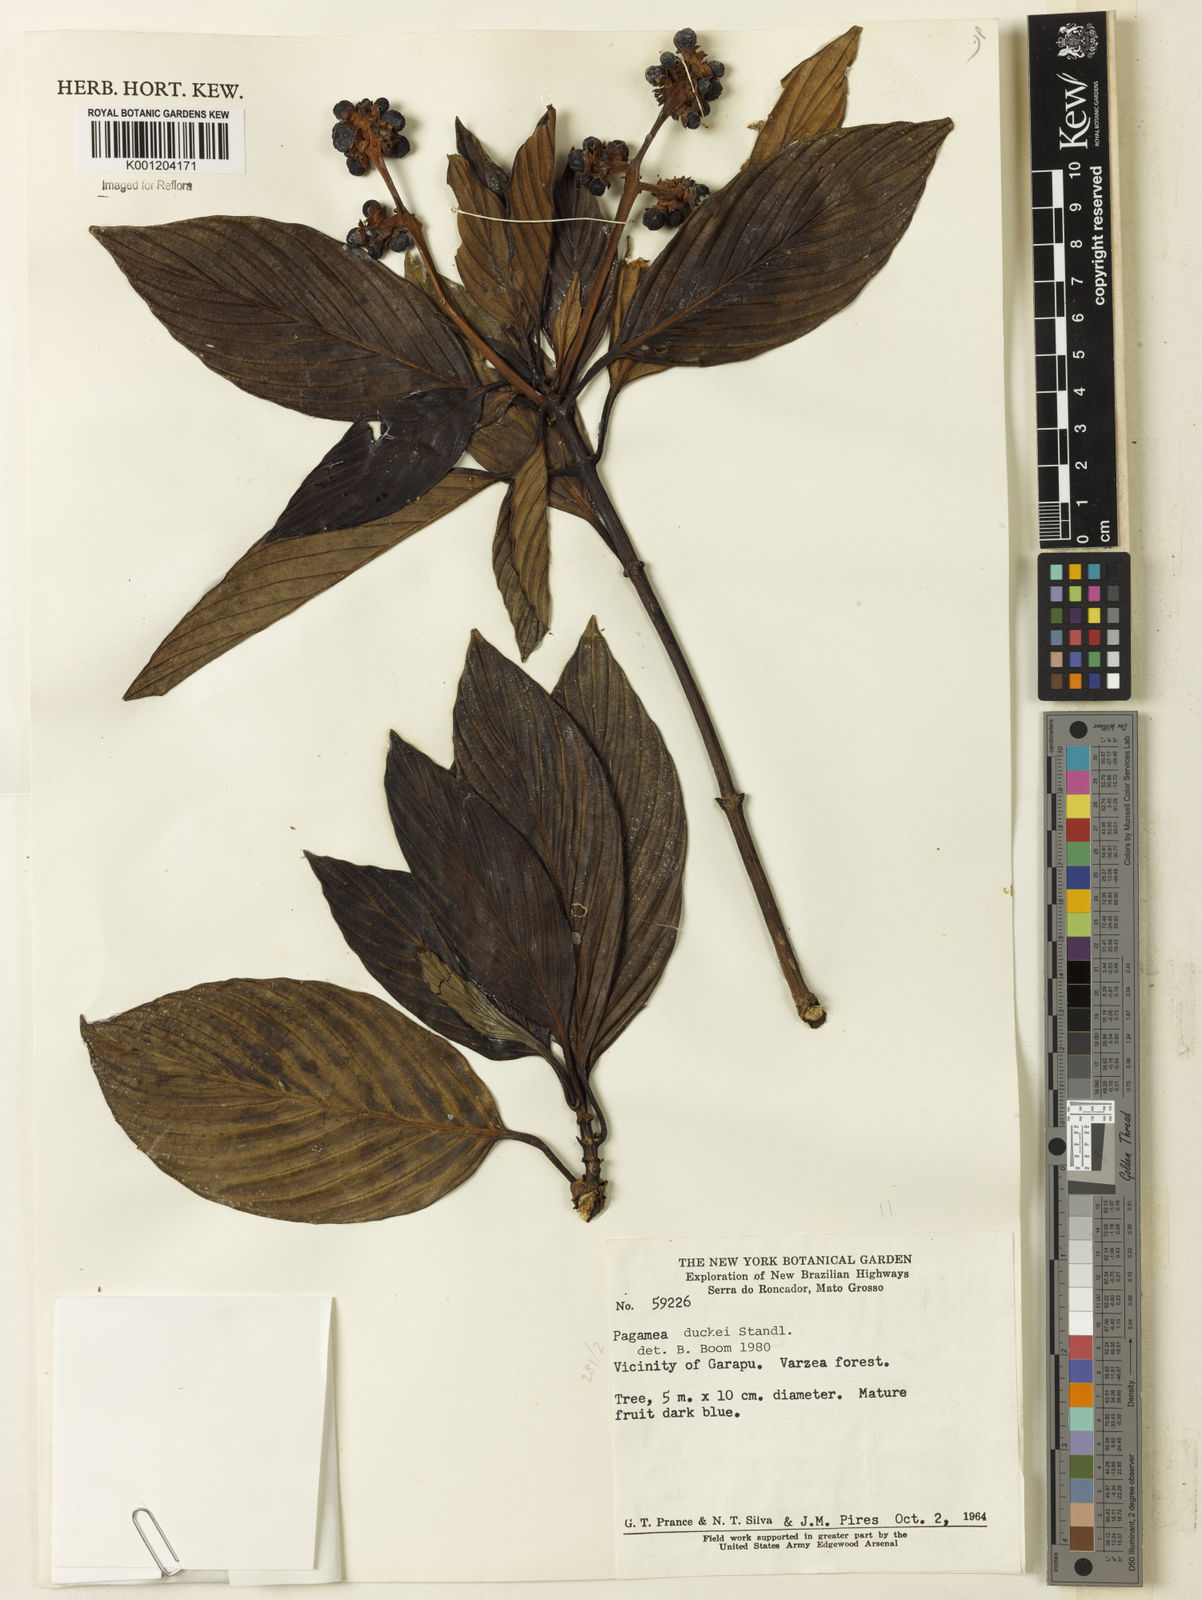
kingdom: Plantae
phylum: Tracheophyta
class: Magnoliopsida
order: Gentianales
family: Rubiaceae
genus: Pagamea
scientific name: Pagamea plicata
